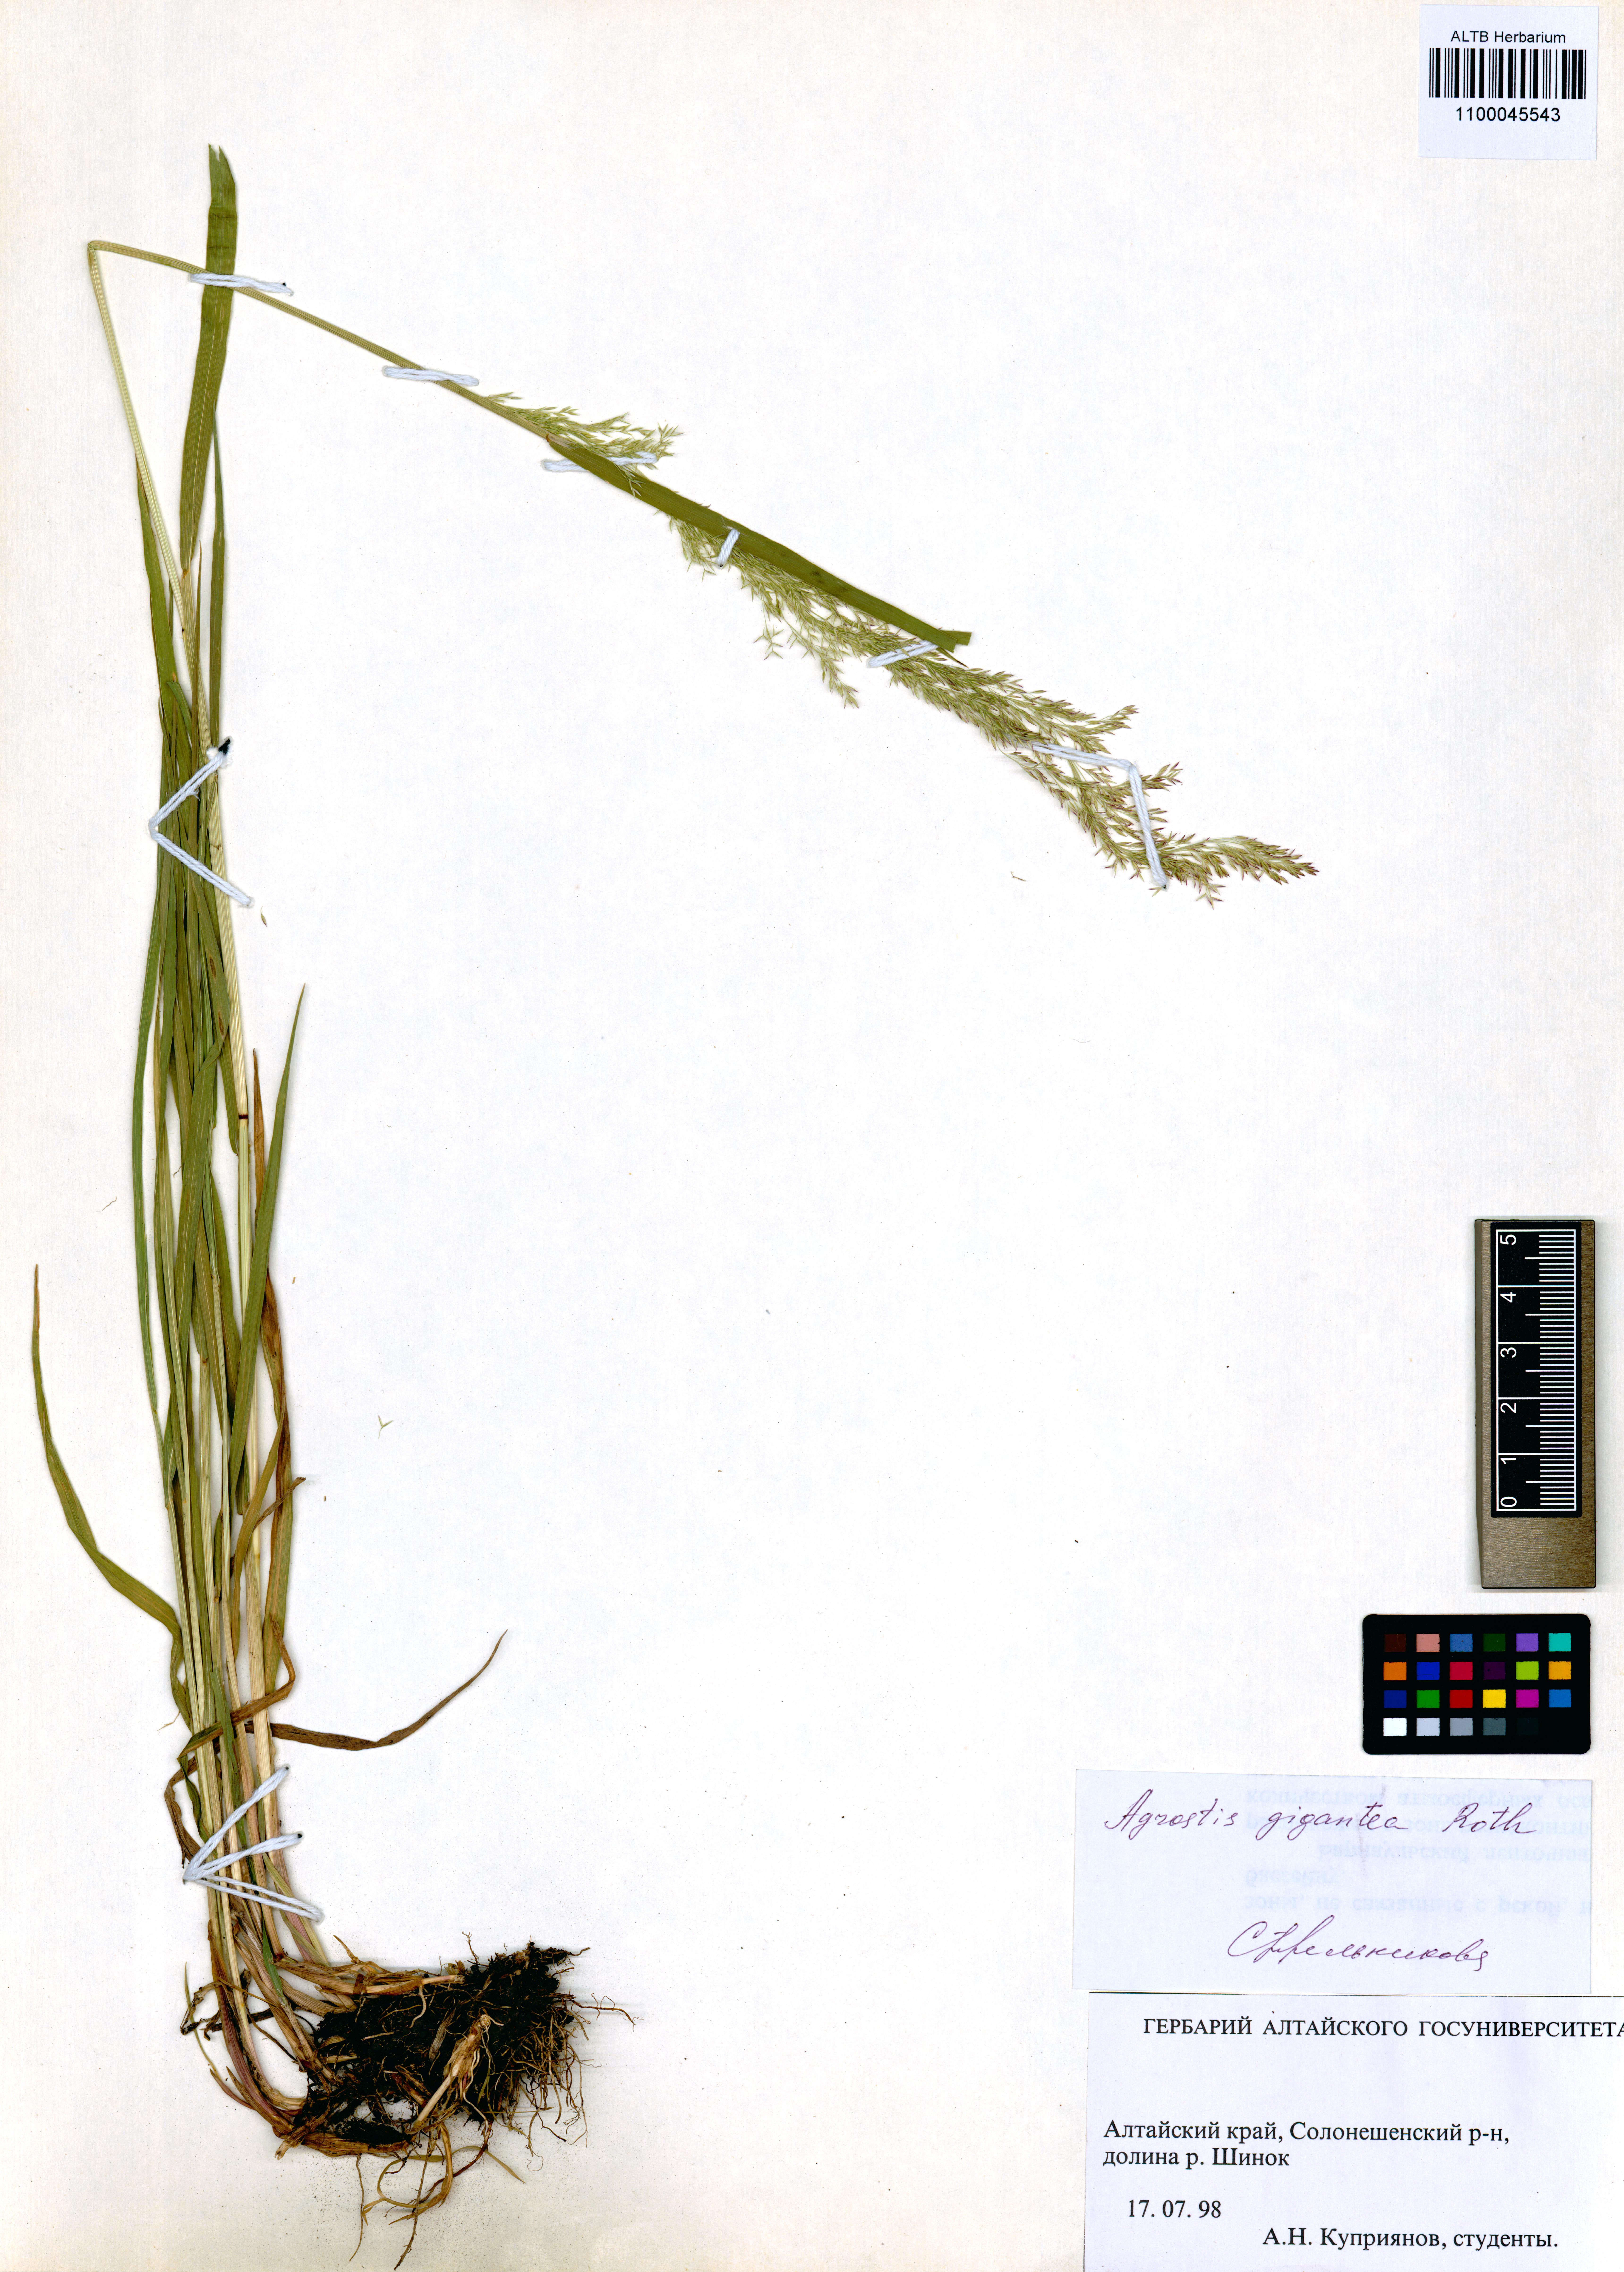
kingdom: Plantae
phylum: Tracheophyta
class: Liliopsida
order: Poales
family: Poaceae
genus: Agrostis
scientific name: Agrostis gigantea
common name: Black bent
